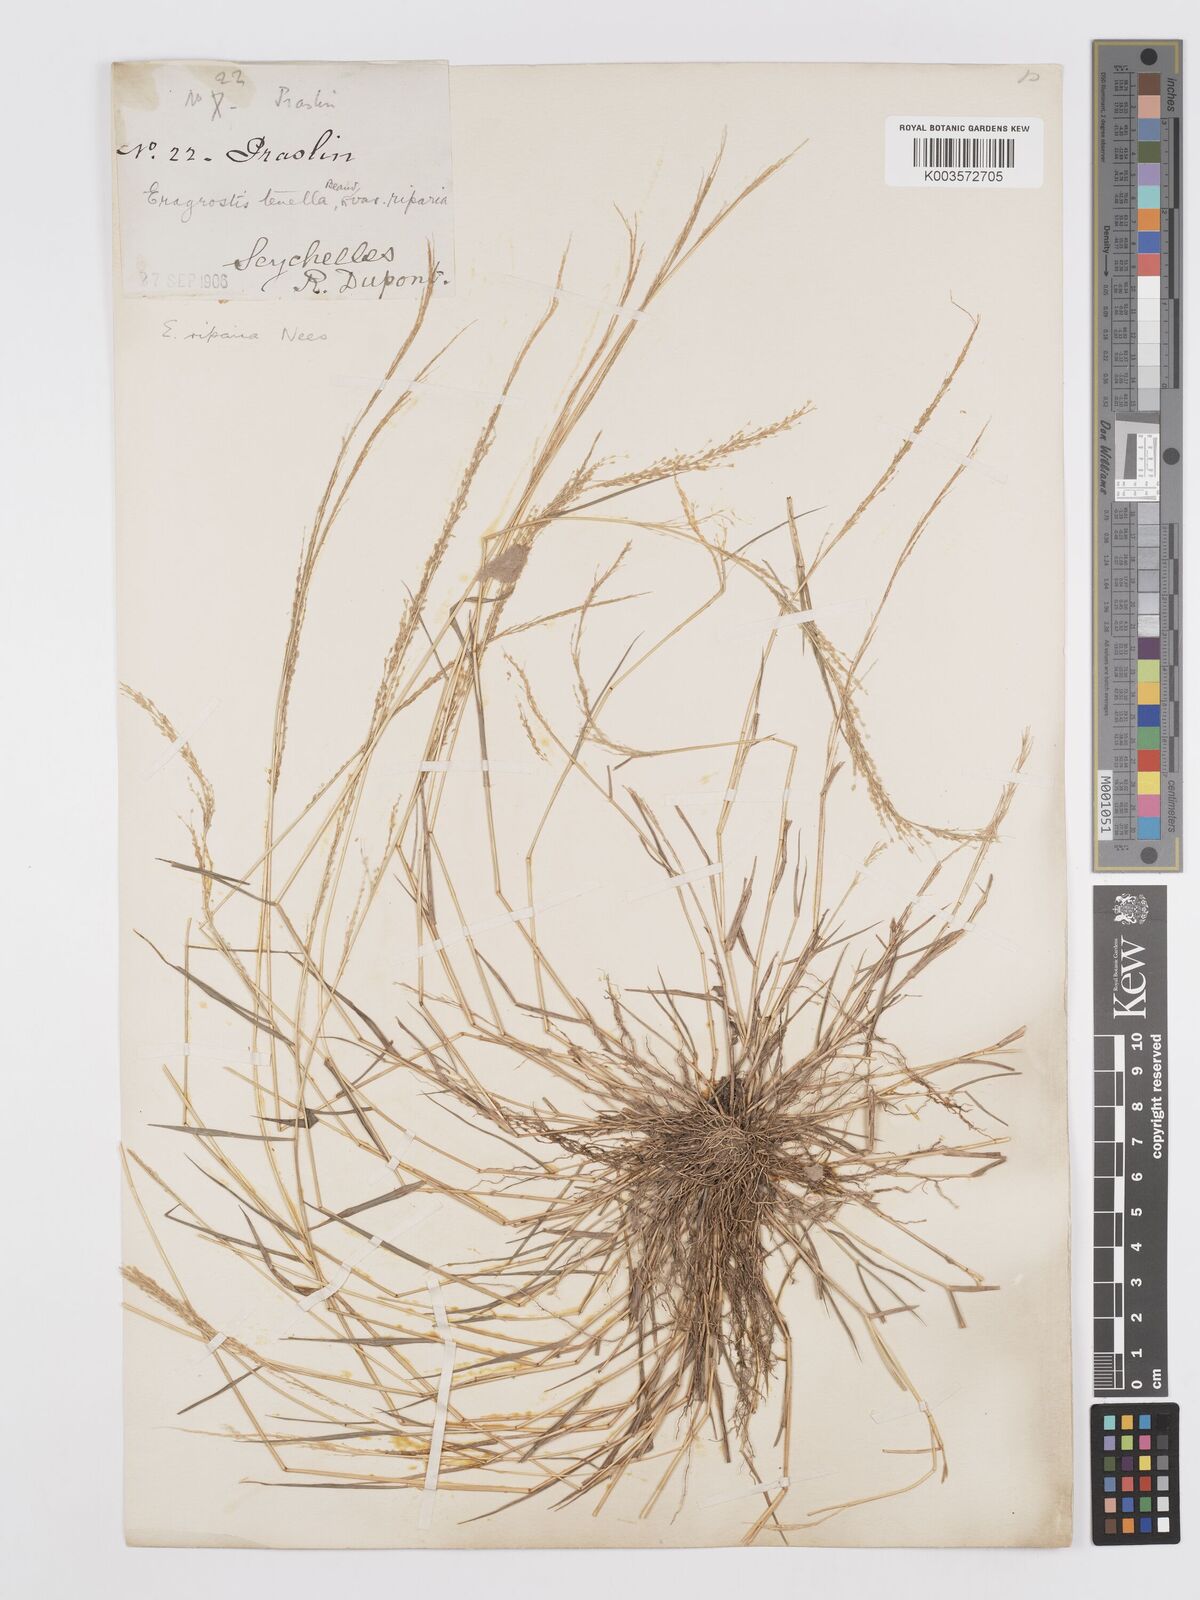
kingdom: Plantae
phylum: Tracheophyta
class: Liliopsida
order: Poales
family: Poaceae
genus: Eragrostis
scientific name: Eragrostis tenella
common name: Japanese lovegrass
